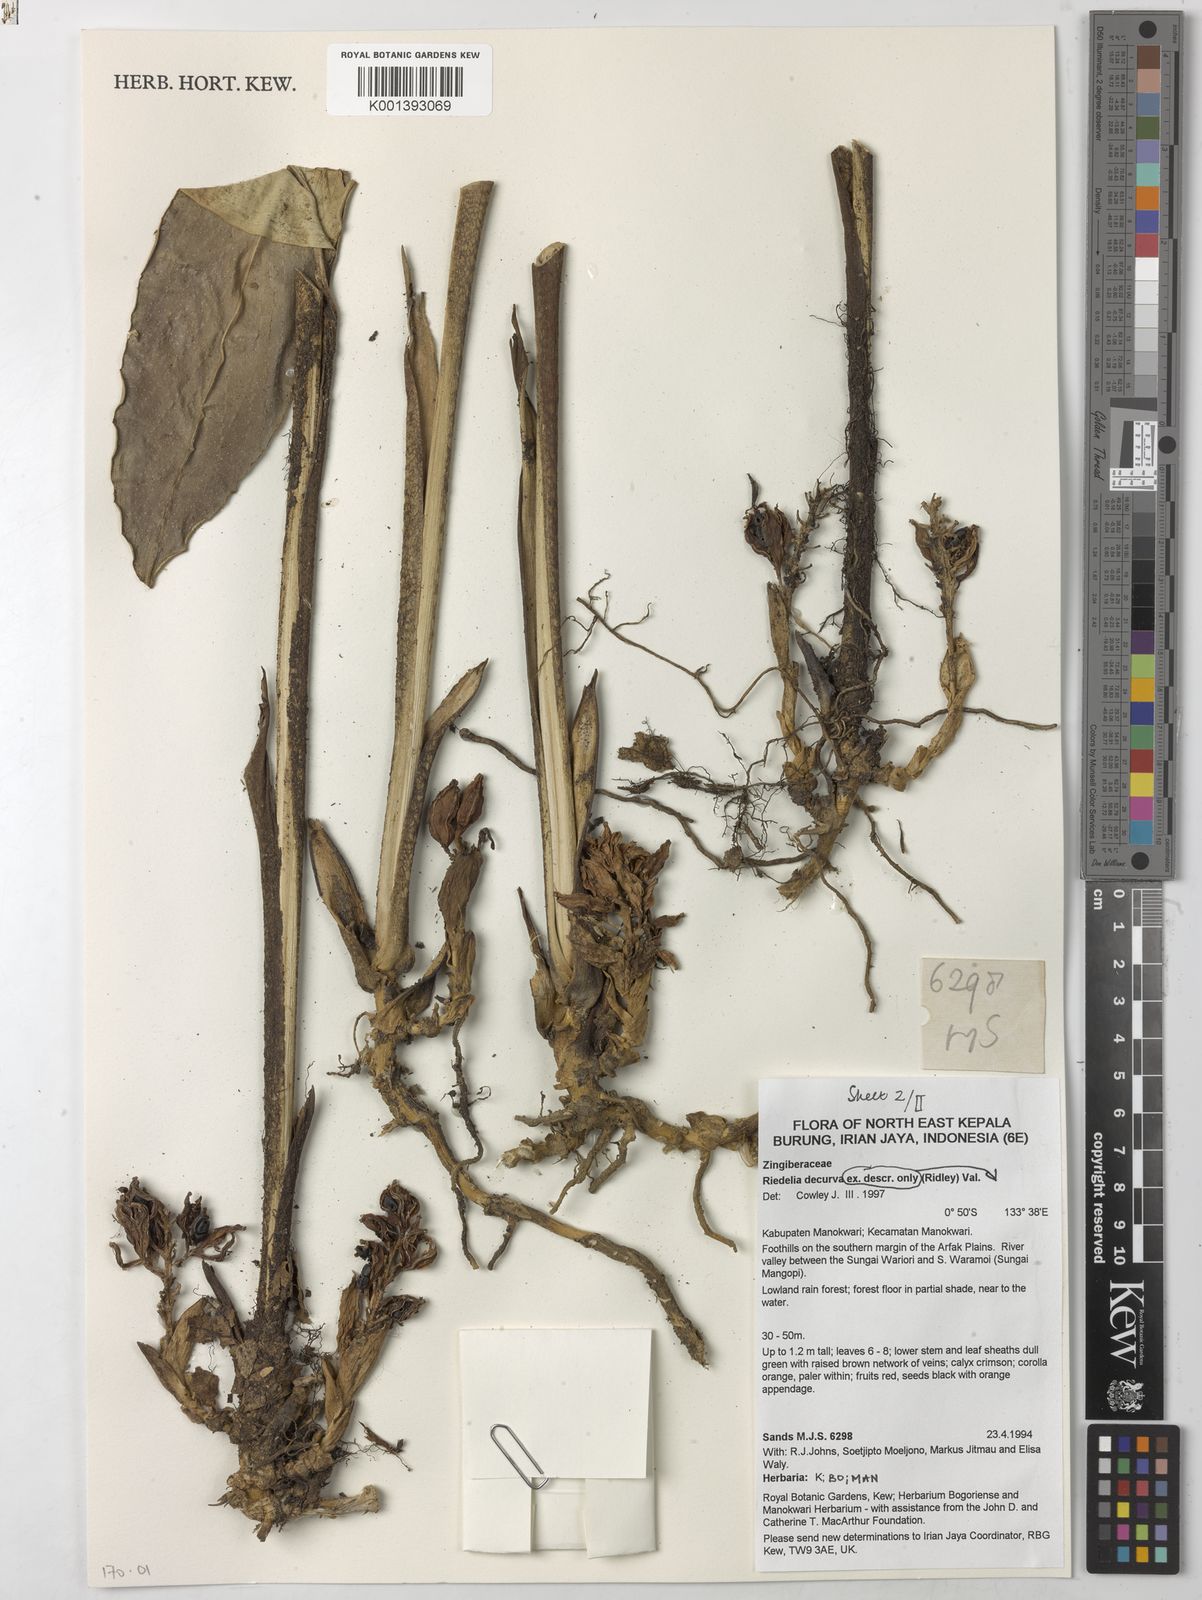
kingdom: Plantae
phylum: Tracheophyta
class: Liliopsida
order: Zingiberales
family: Zingiberaceae
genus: Riedelia
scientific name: Riedelia decurva
